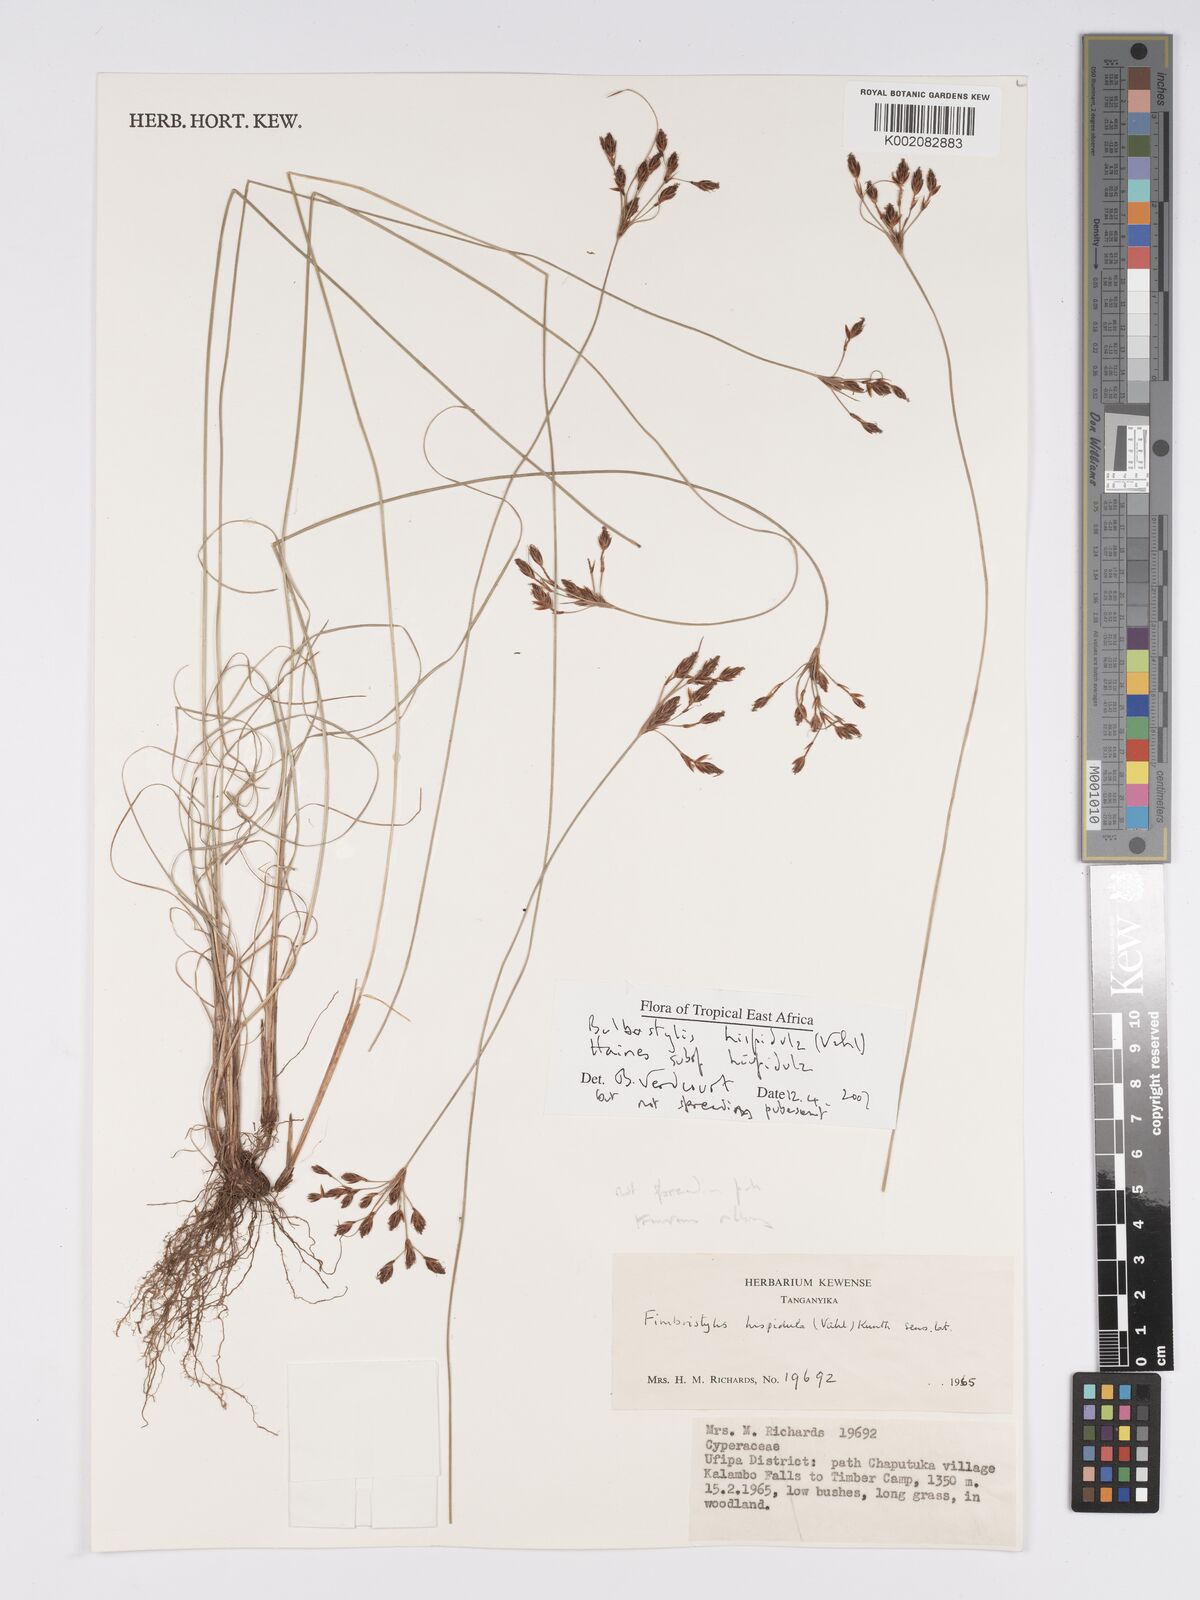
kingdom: Plantae
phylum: Tracheophyta
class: Liliopsida
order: Poales
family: Cyperaceae
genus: Bulbostylis
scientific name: Bulbostylis hispidula
